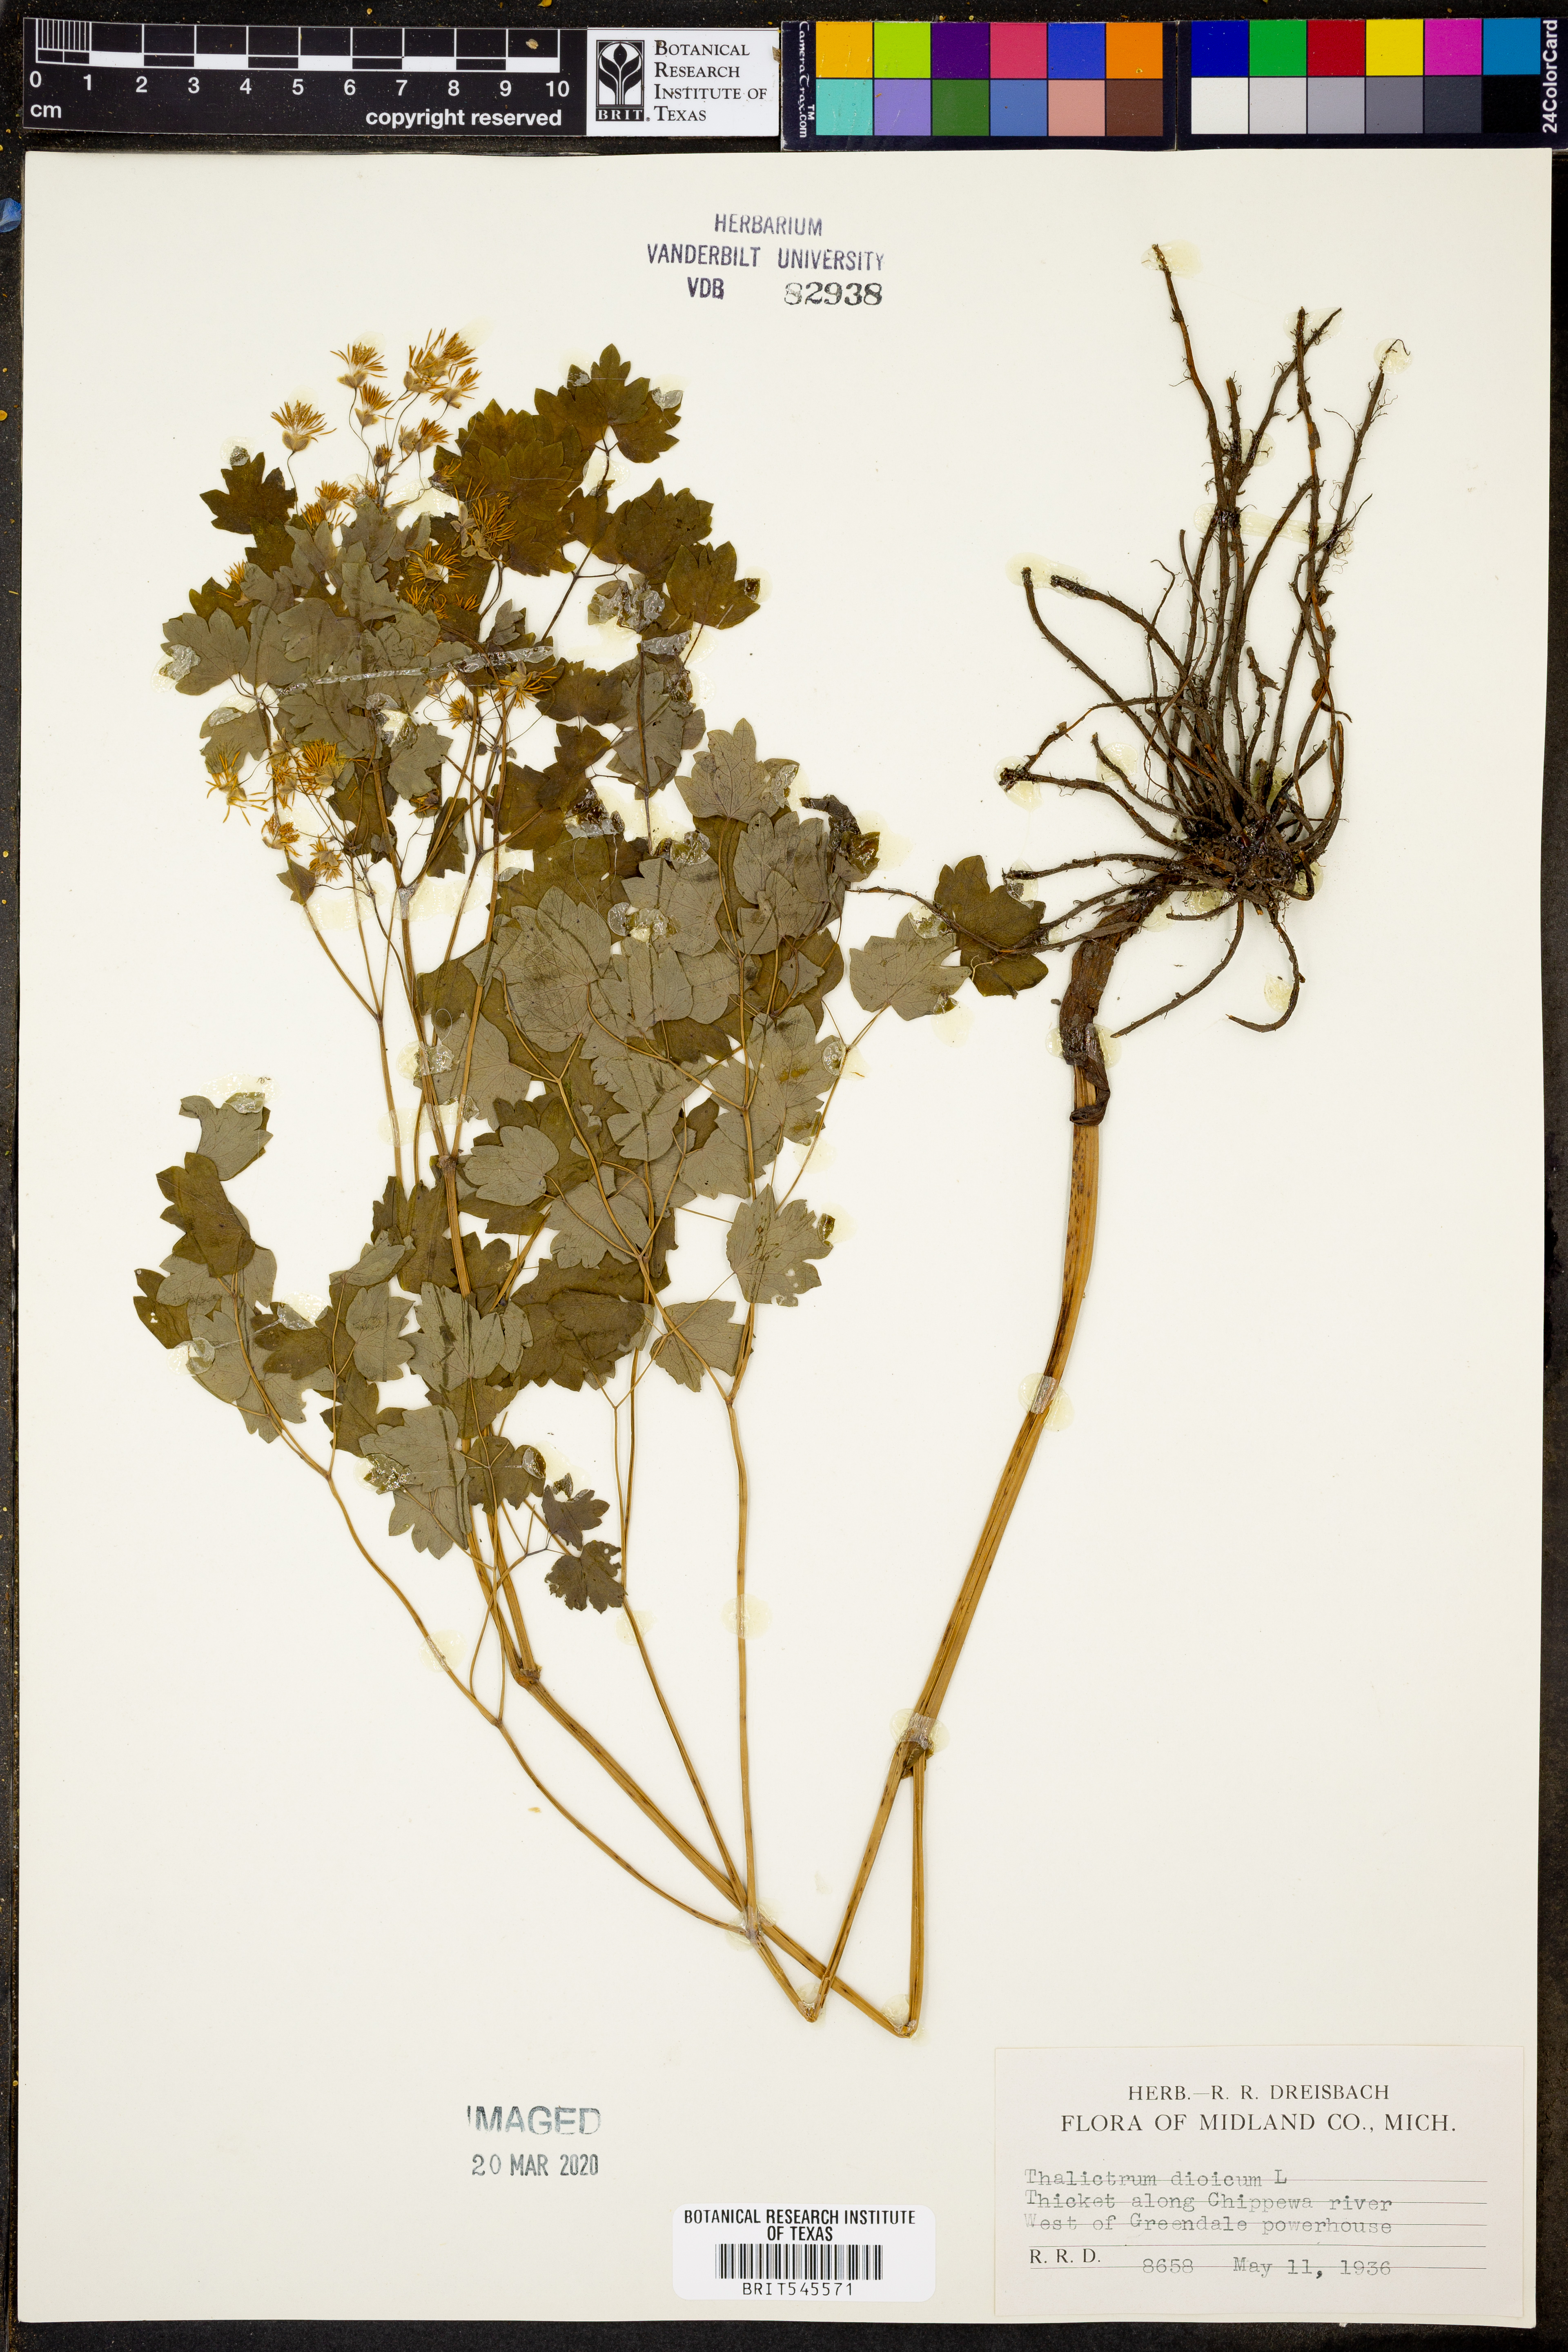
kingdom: Plantae
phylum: Tracheophyta
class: Magnoliopsida
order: Ranunculales
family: Ranunculaceae
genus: Thalictrum
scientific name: Thalictrum dioicum
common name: Early meadow-rue
